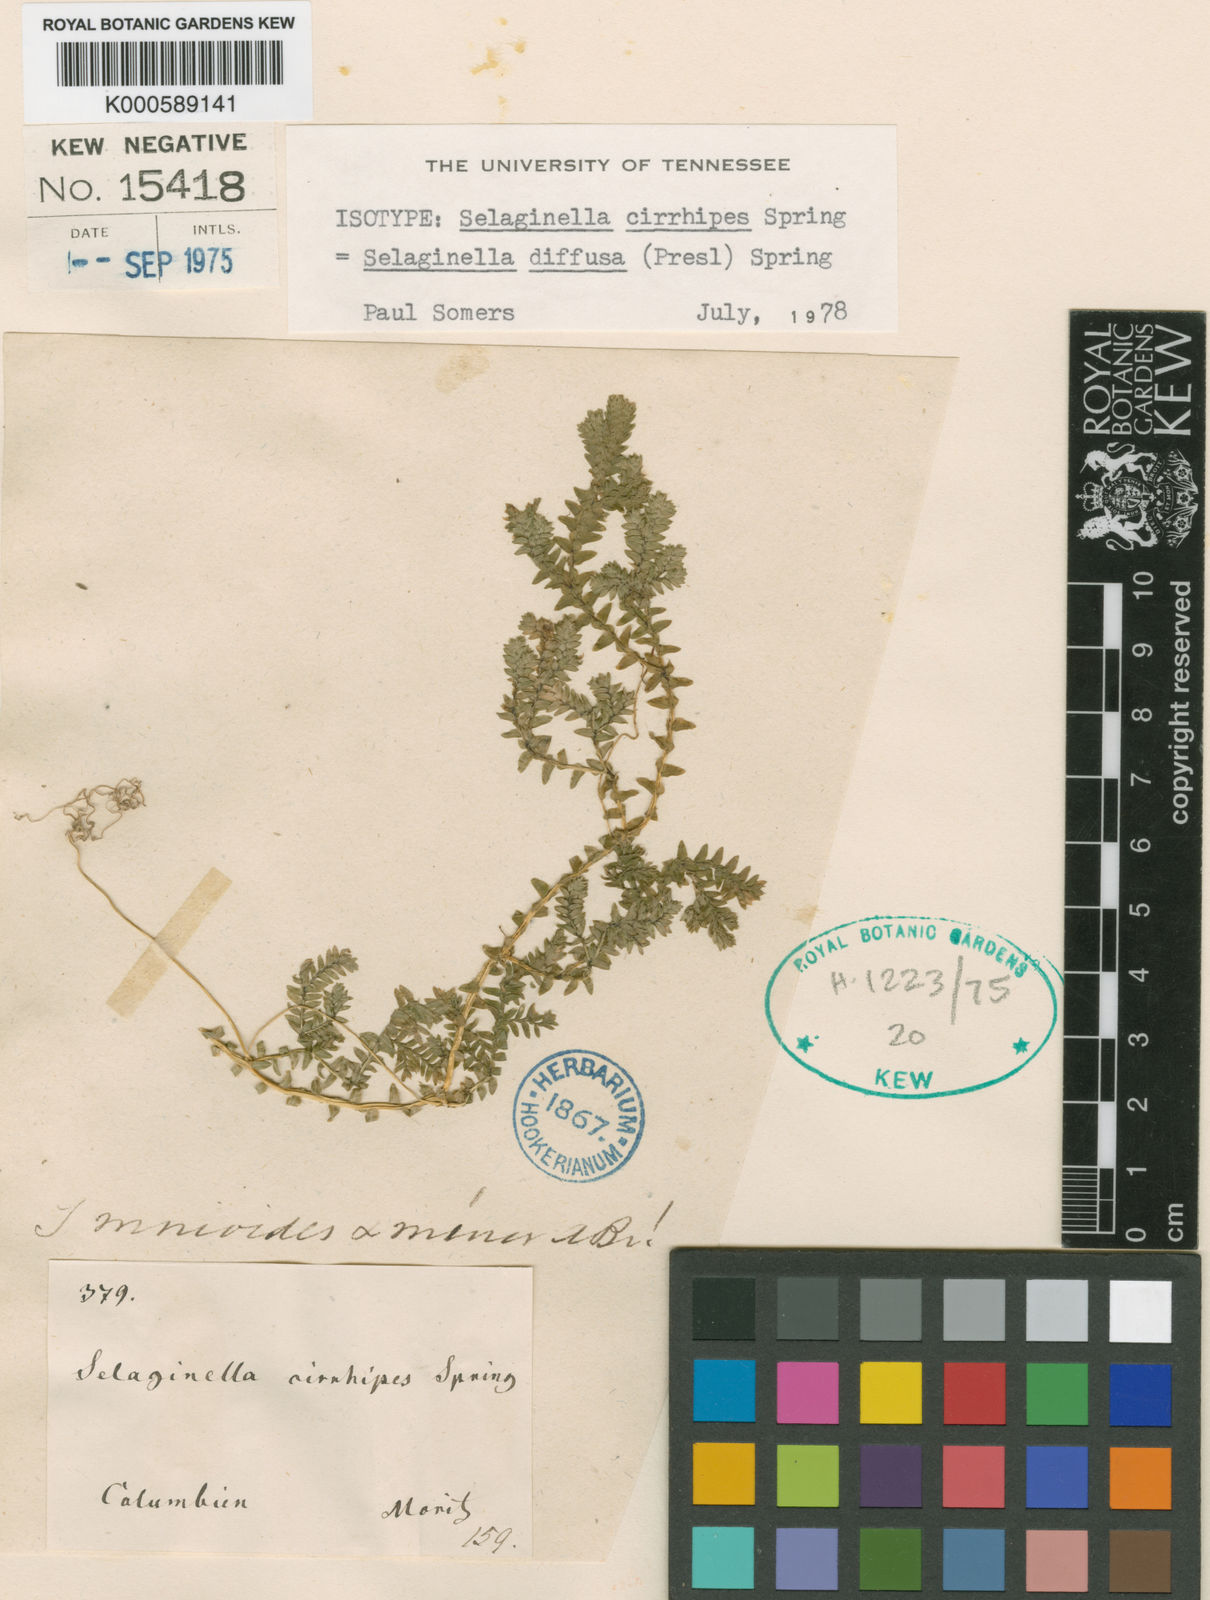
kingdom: Plantae
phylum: Tracheophyta
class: Lycopodiopsida
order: Selaginellales
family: Selaginellaceae
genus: Selaginella
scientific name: Selaginella diffusa
